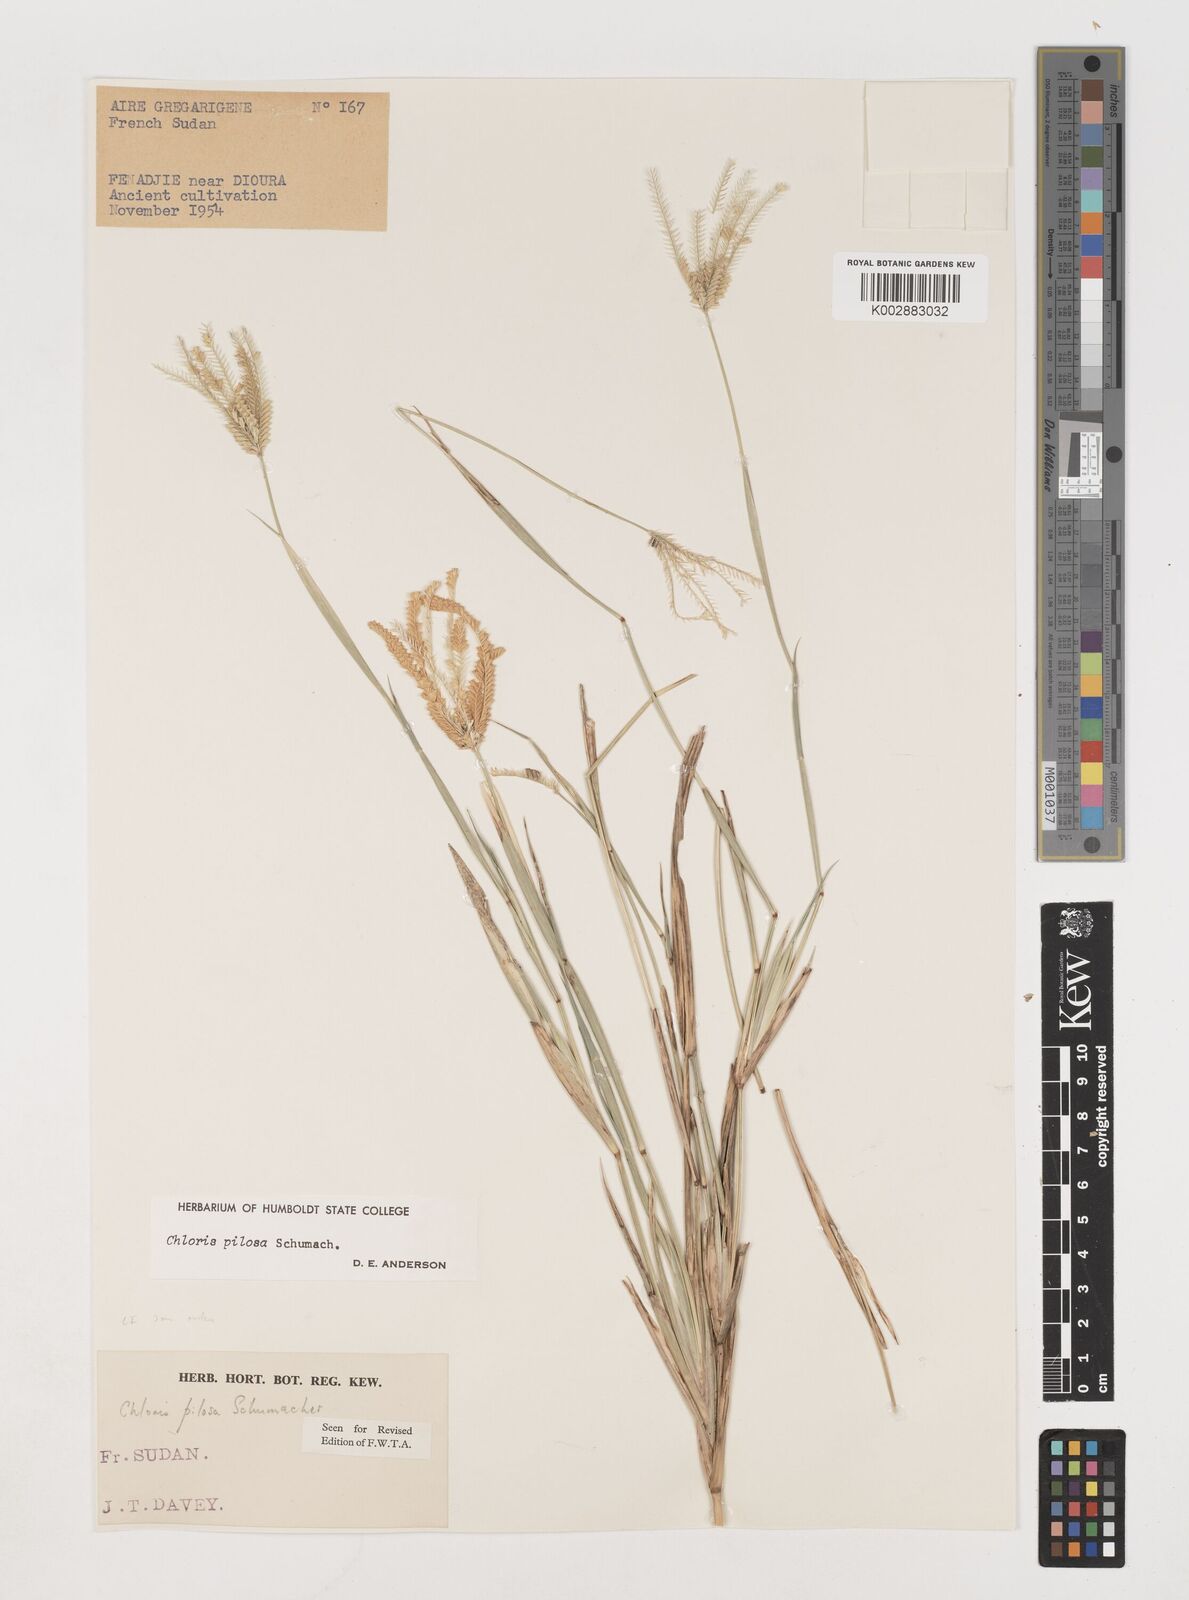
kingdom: Plantae
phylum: Tracheophyta
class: Liliopsida
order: Poales
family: Poaceae
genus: Chloris
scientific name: Chloris pilosa
